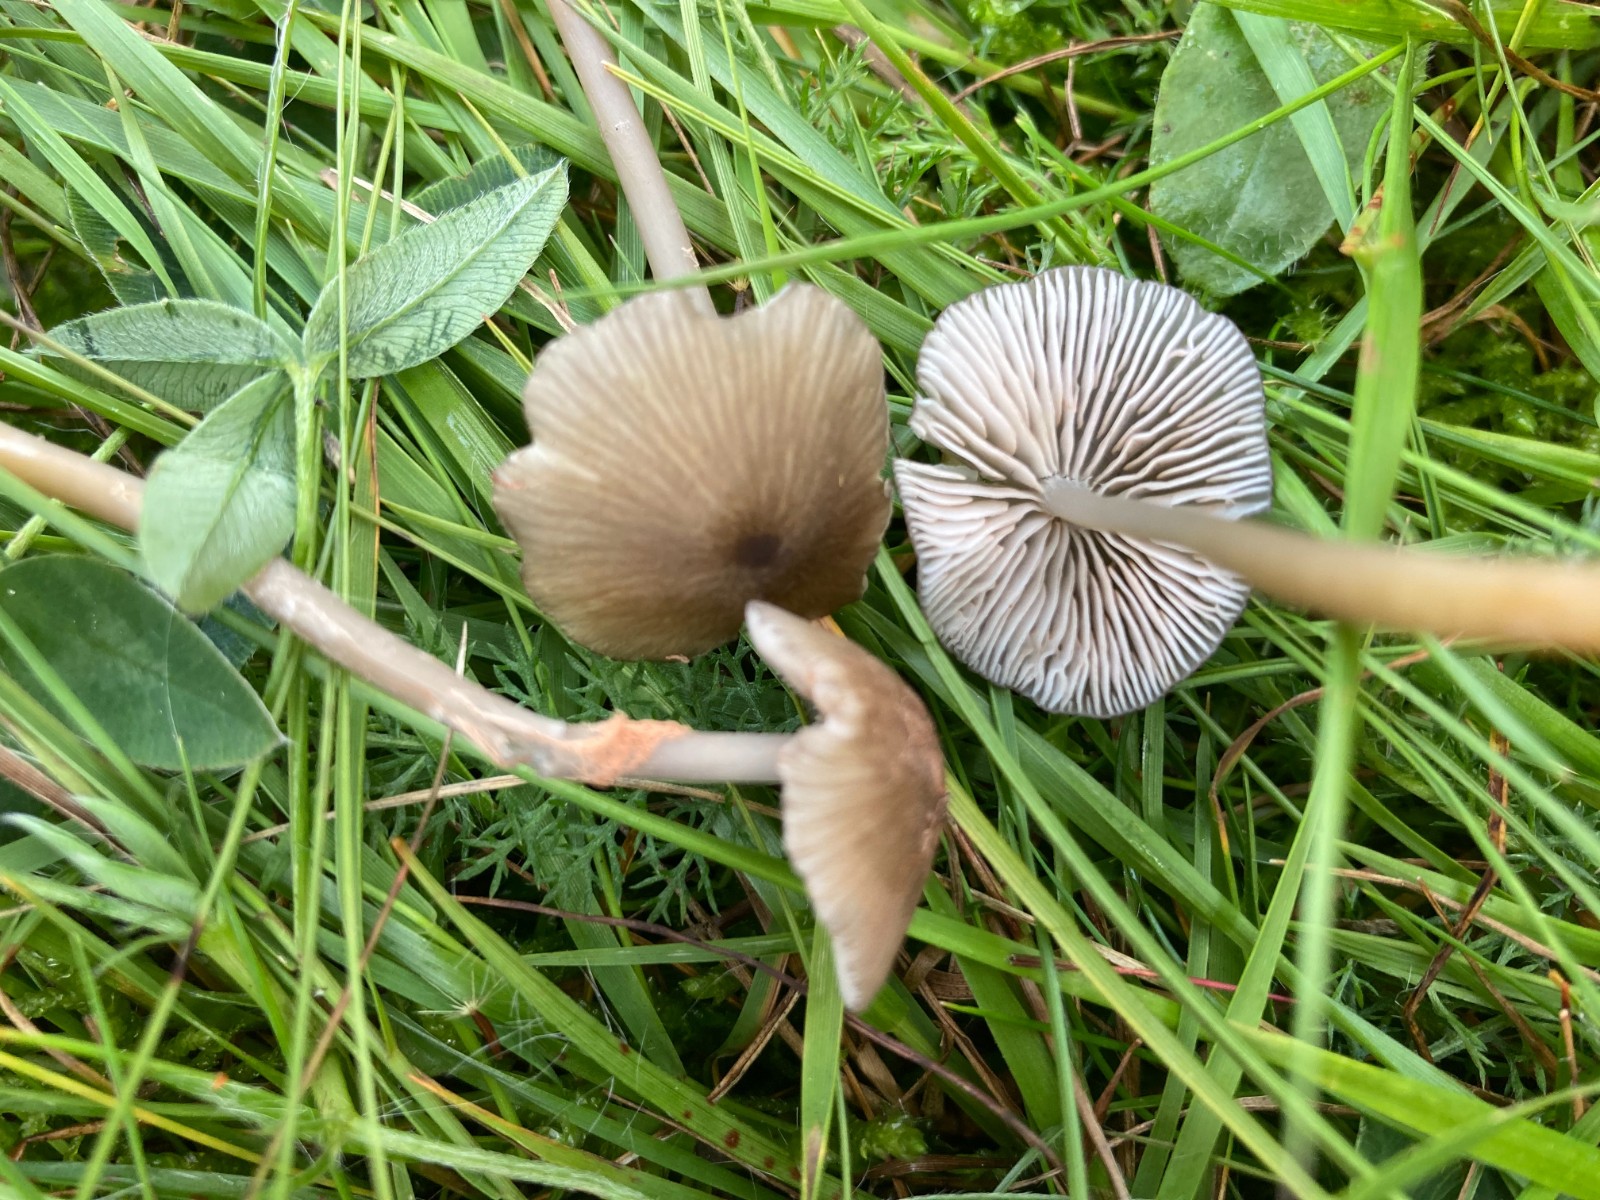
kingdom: Fungi
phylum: Basidiomycota
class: Agaricomycetes
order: Agaricales
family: Entolomataceae
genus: Entoloma
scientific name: Entoloma exile
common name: rødplettet rødblad
